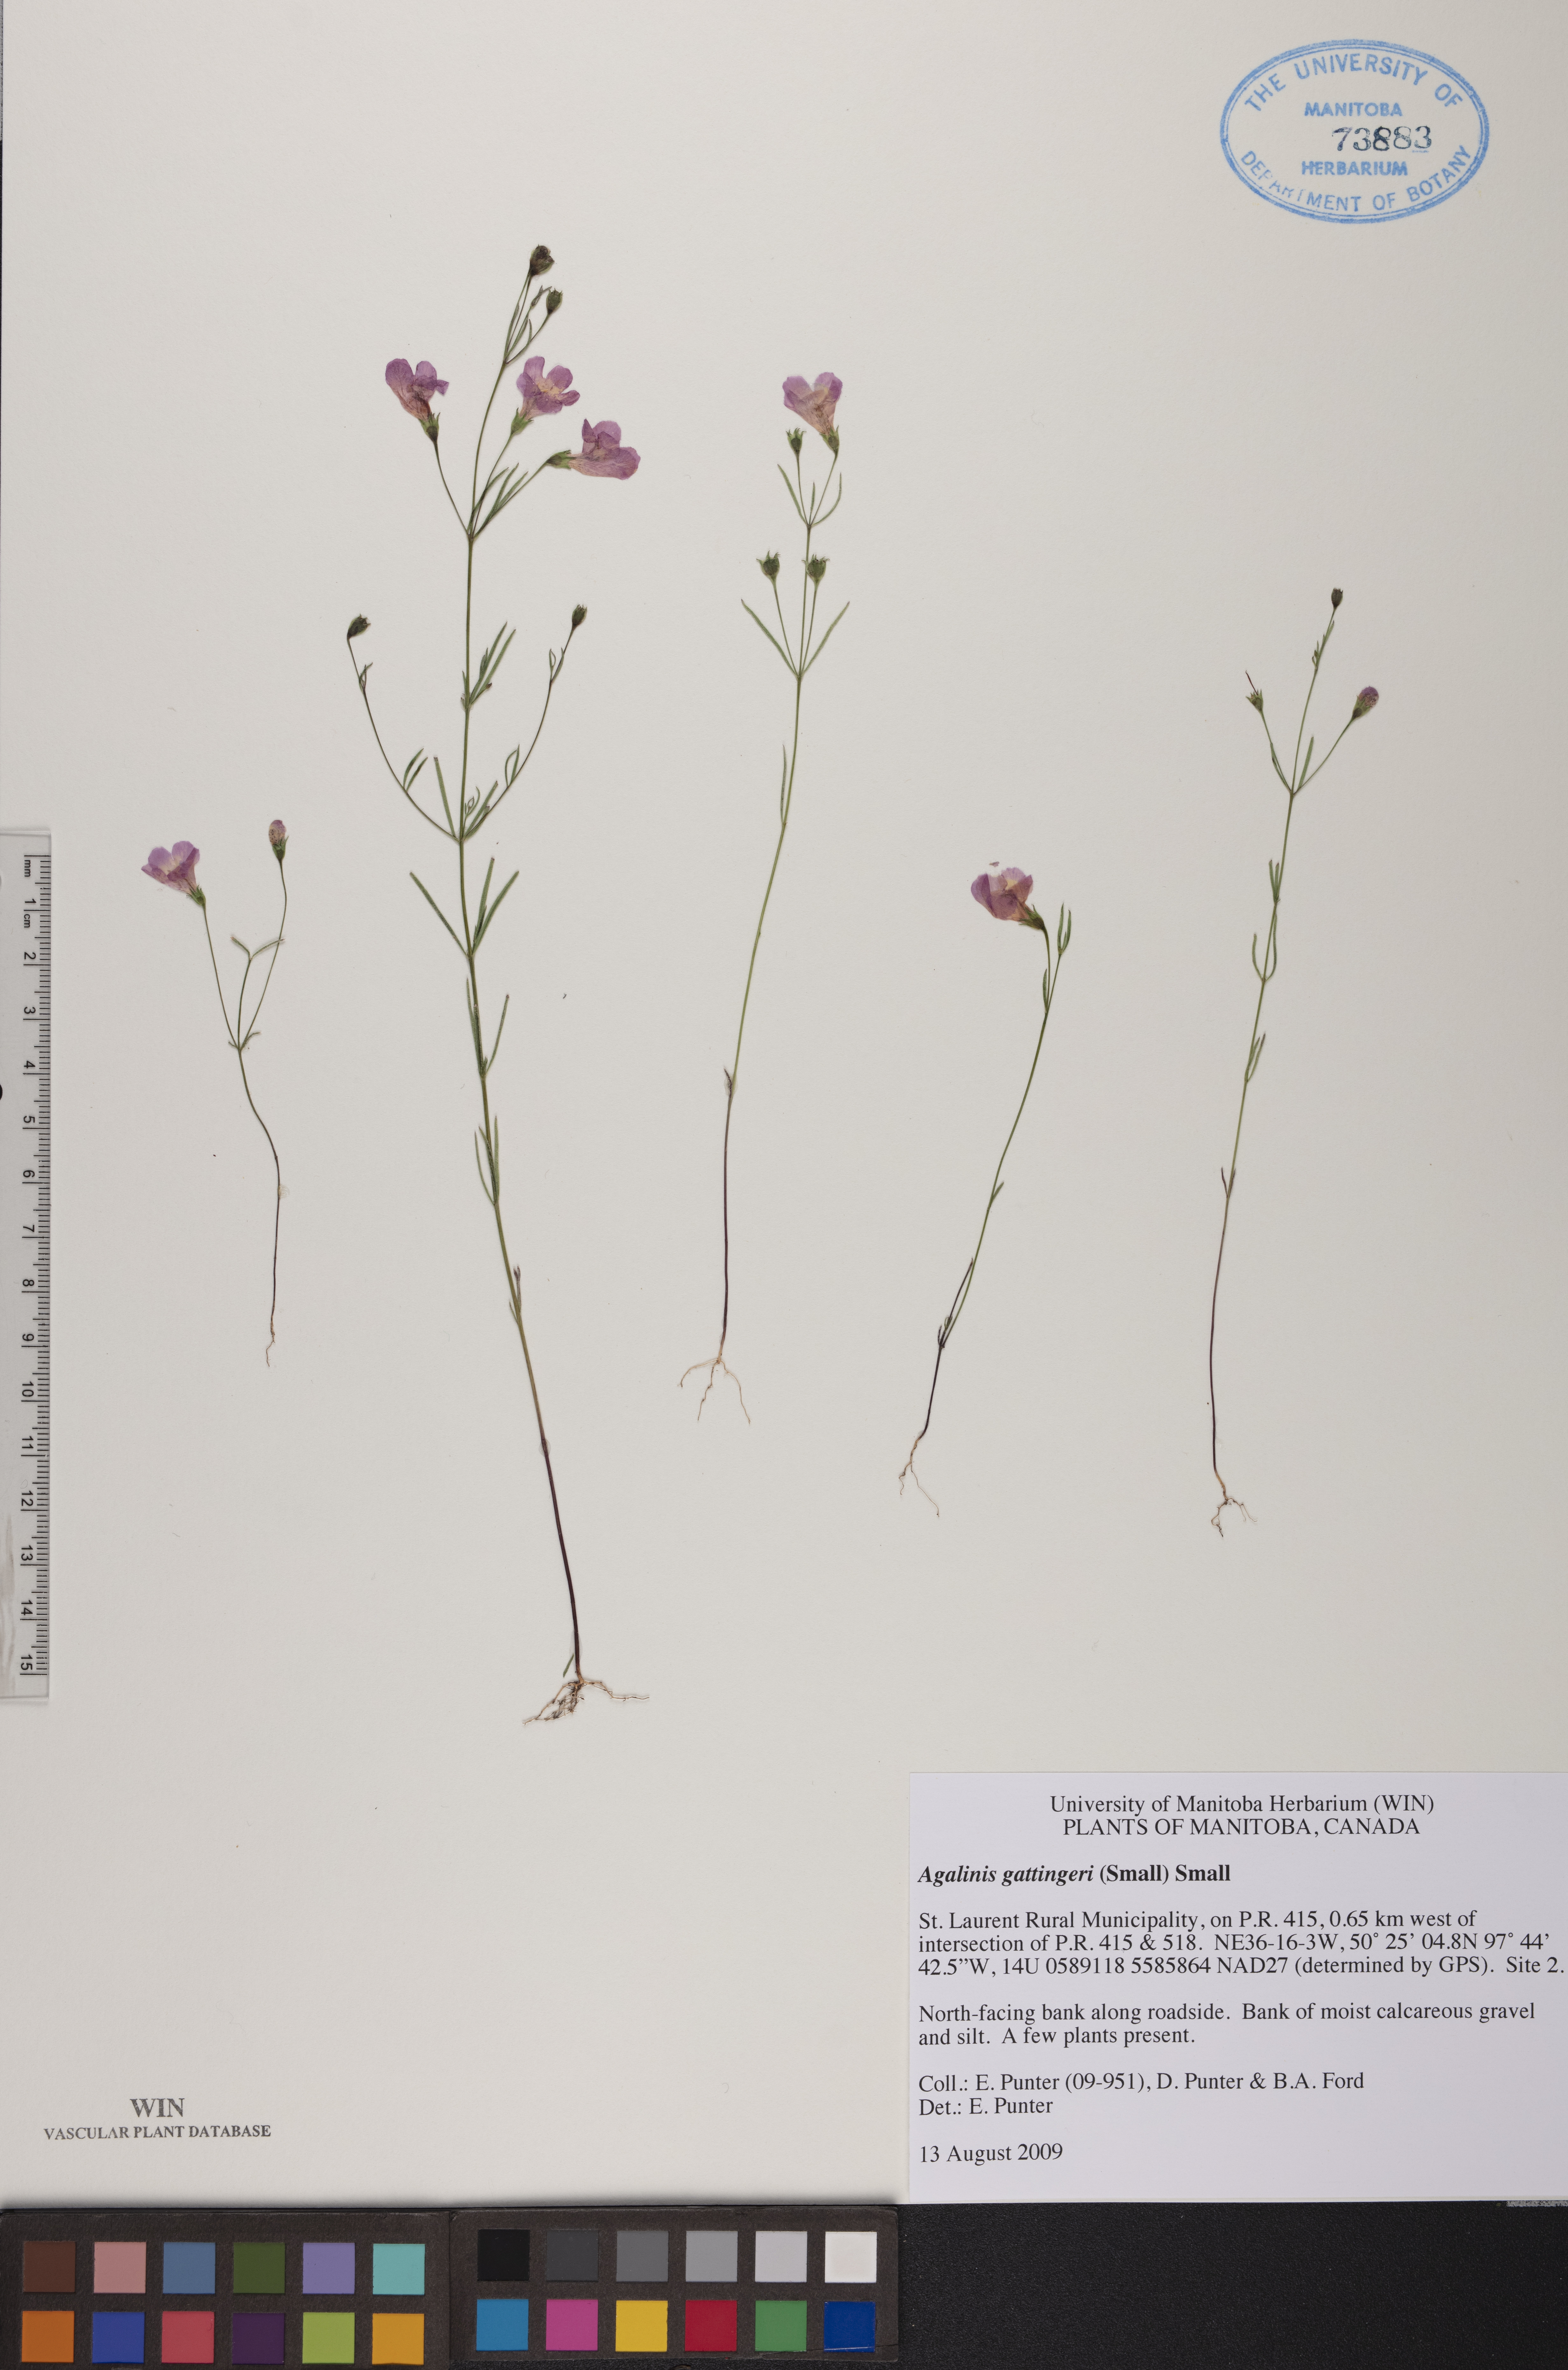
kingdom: Plantae
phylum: Tracheophyta
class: Magnoliopsida
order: Lamiales
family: Orobanchaceae
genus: Agalinis
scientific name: Agalinis gattingeri
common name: Gattinger's agalinis
